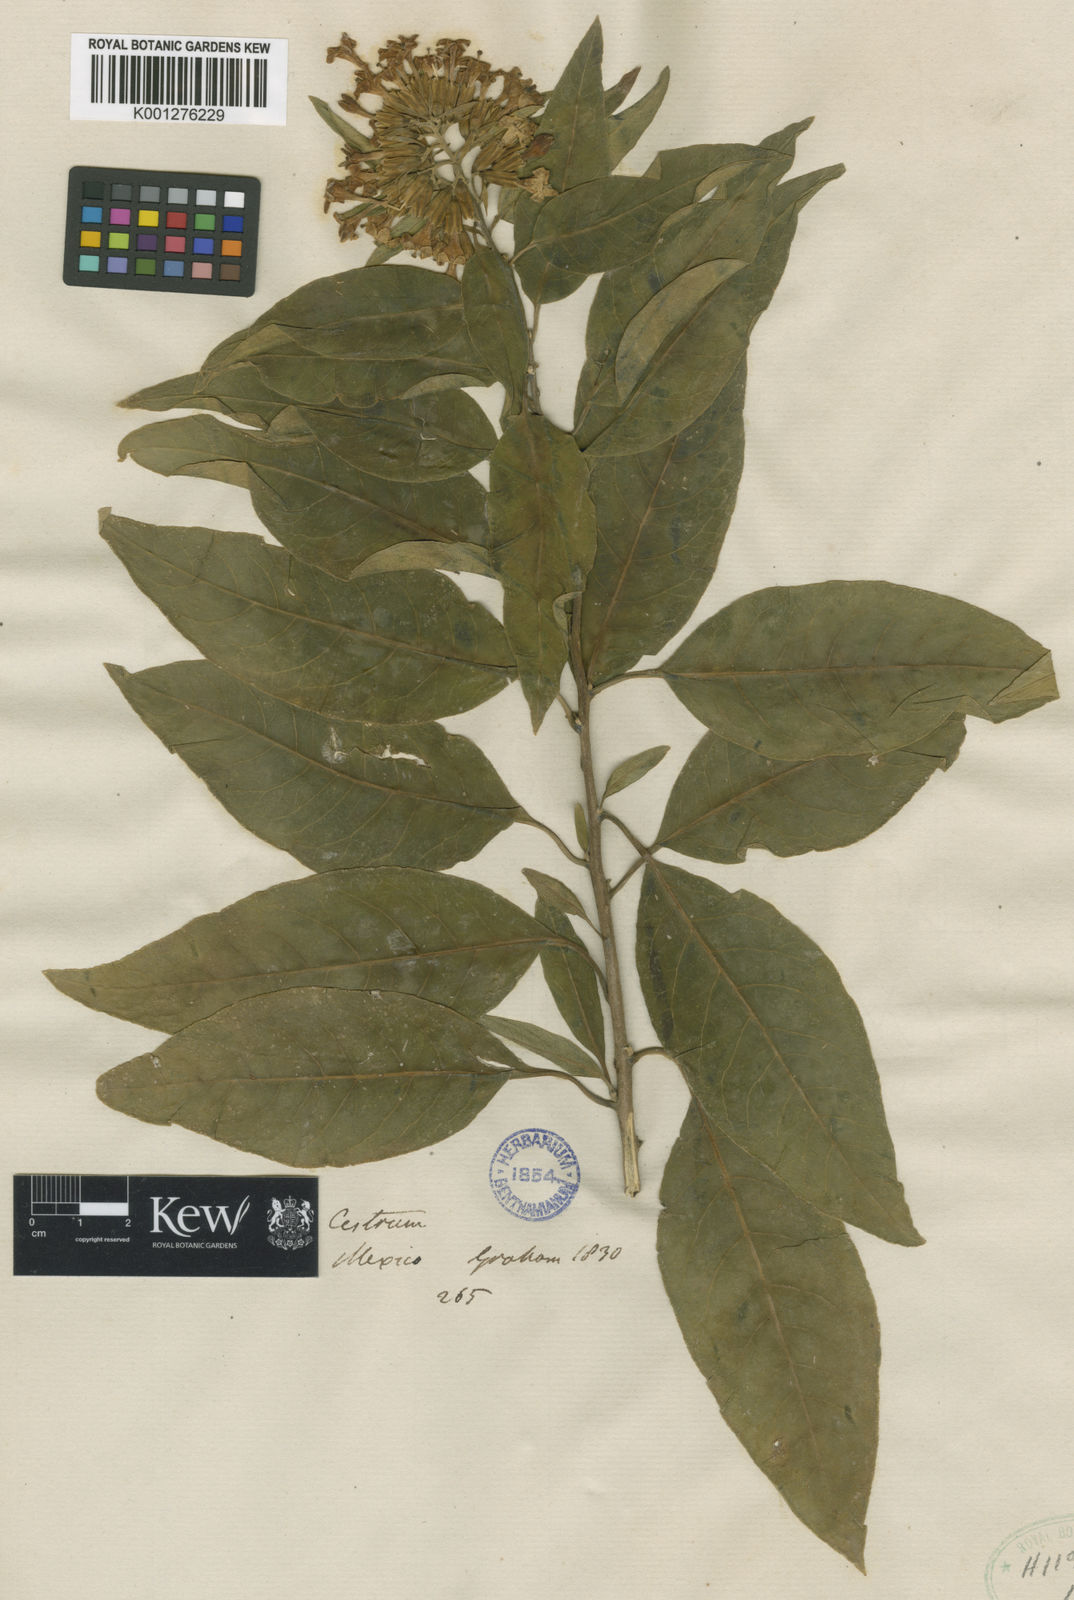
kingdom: Plantae
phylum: Tracheophyta
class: Magnoliopsida
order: Solanales
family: Solanaceae
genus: Cestrum
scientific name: Cestrum
